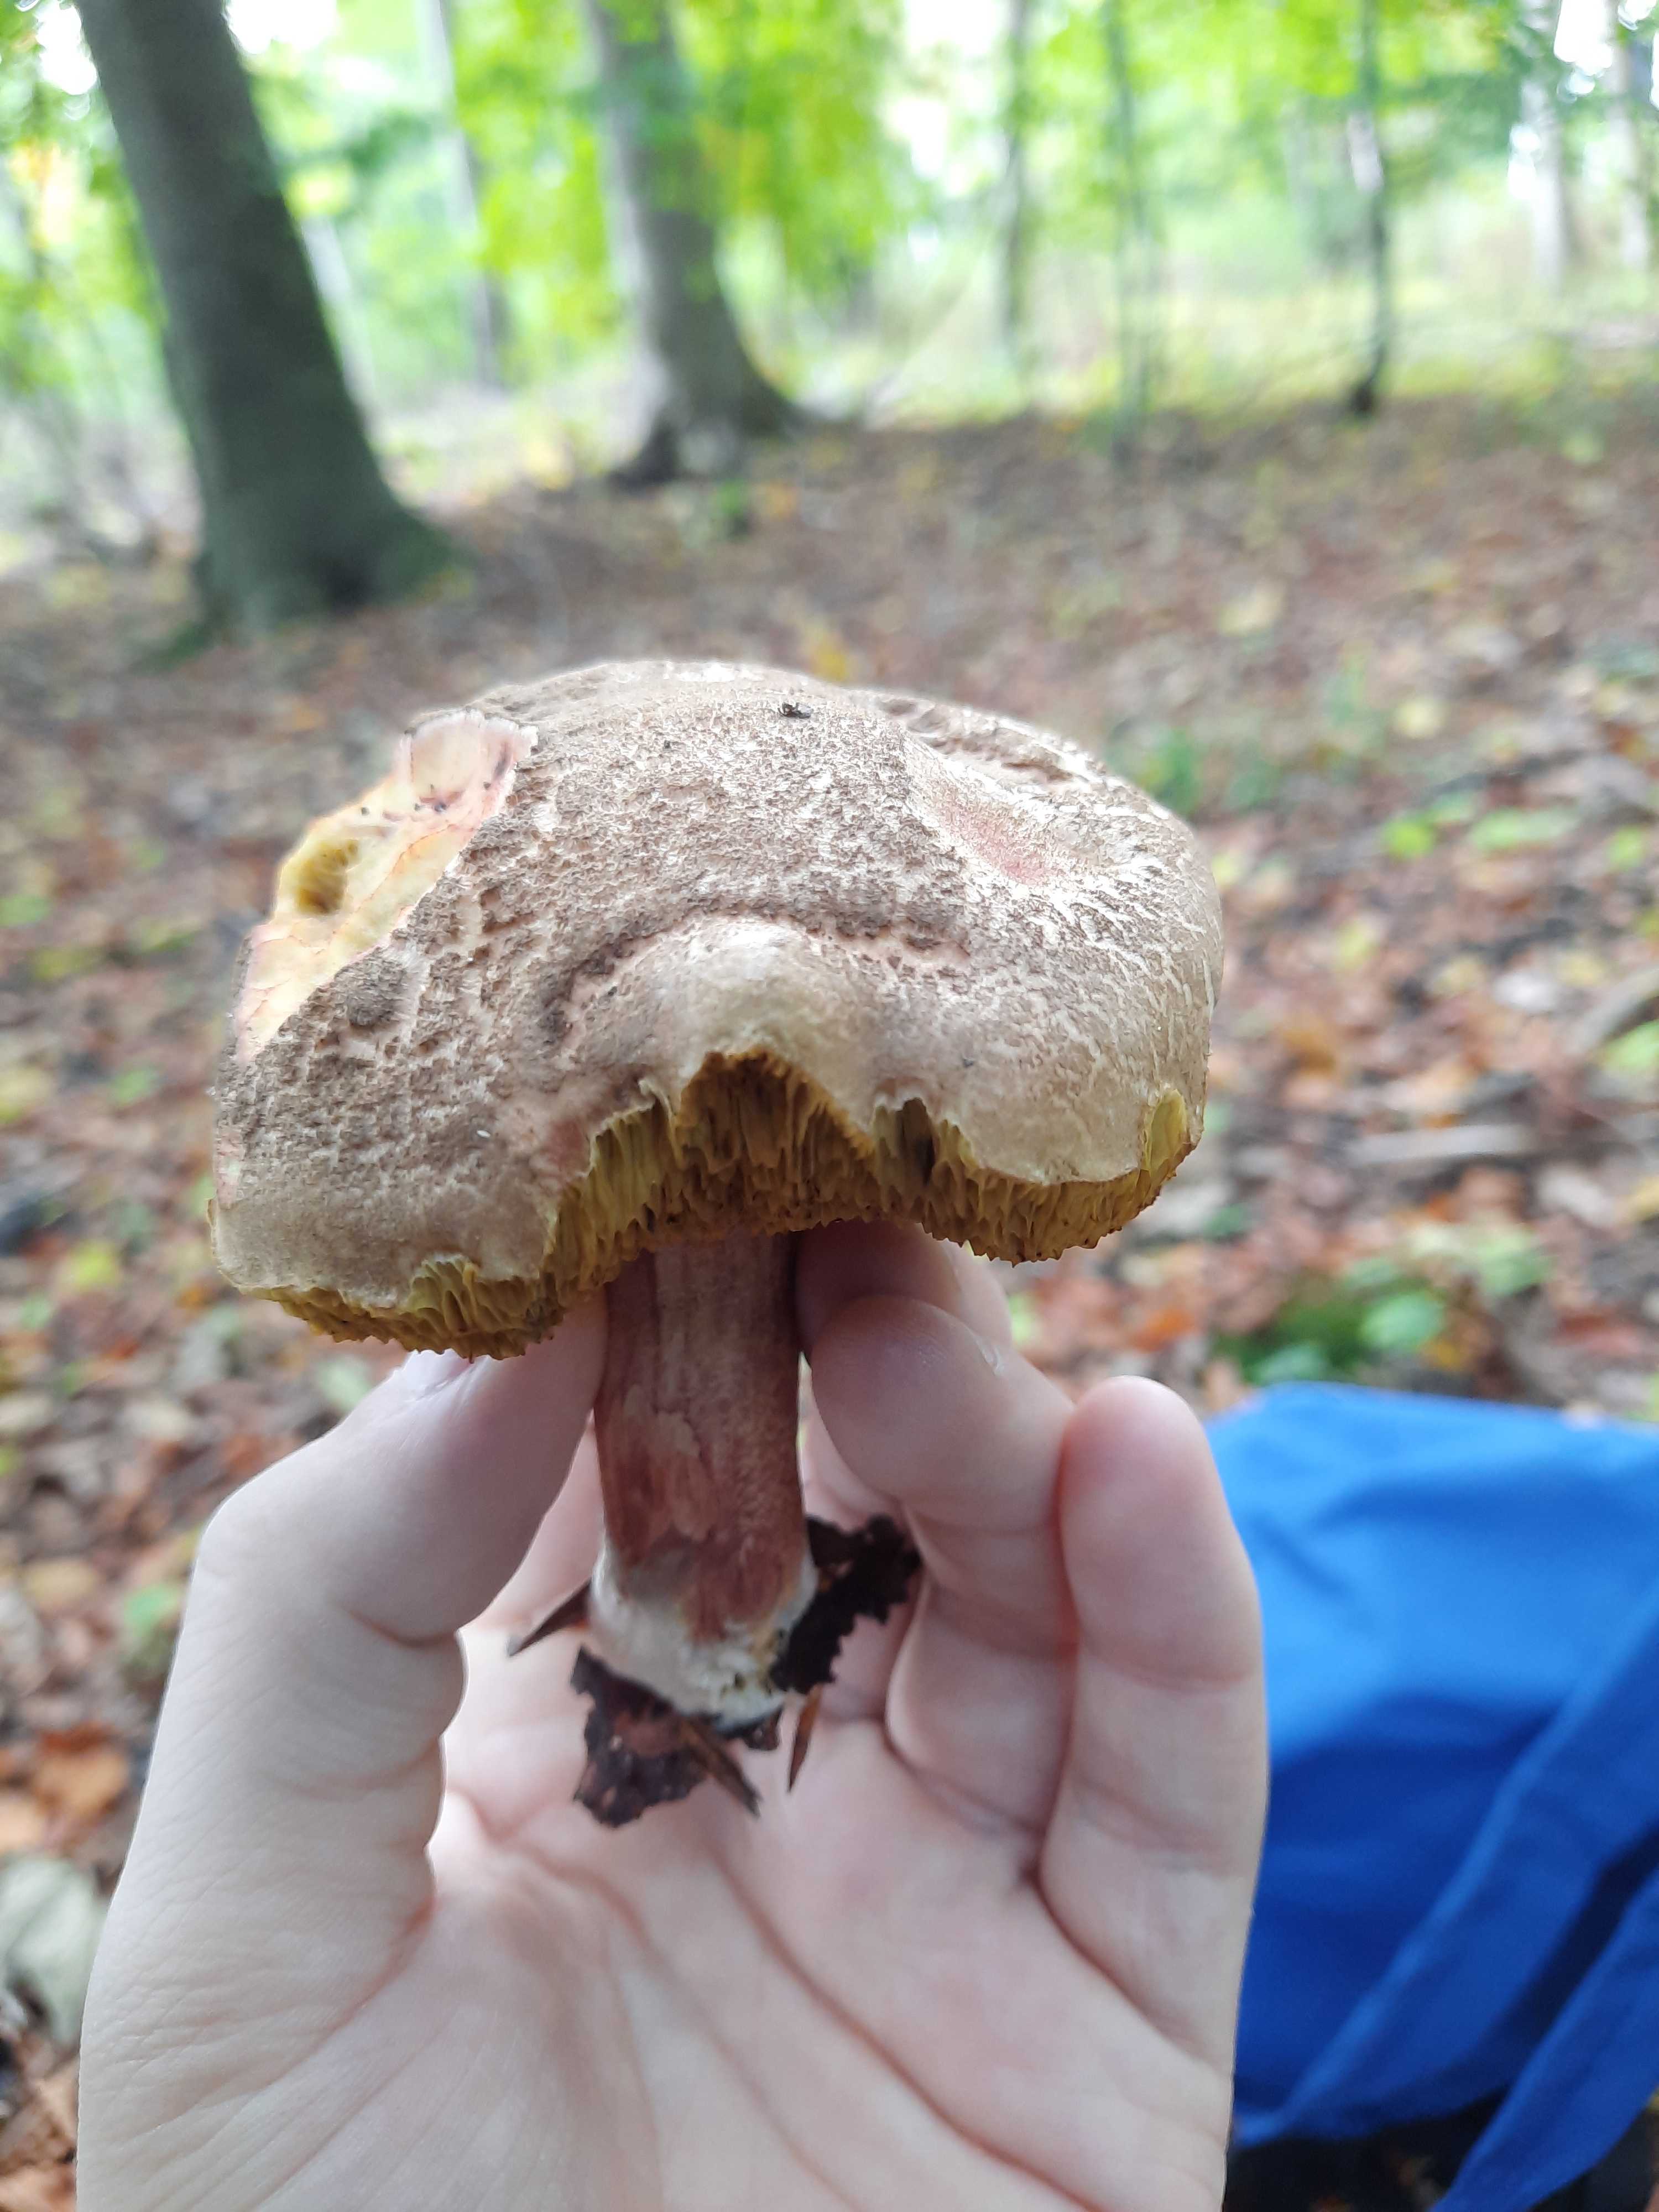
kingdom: Fungi
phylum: Basidiomycota
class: Agaricomycetes
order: Boletales
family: Boletaceae
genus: Xerocomellus
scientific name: Xerocomellus
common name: dværgrørhat
